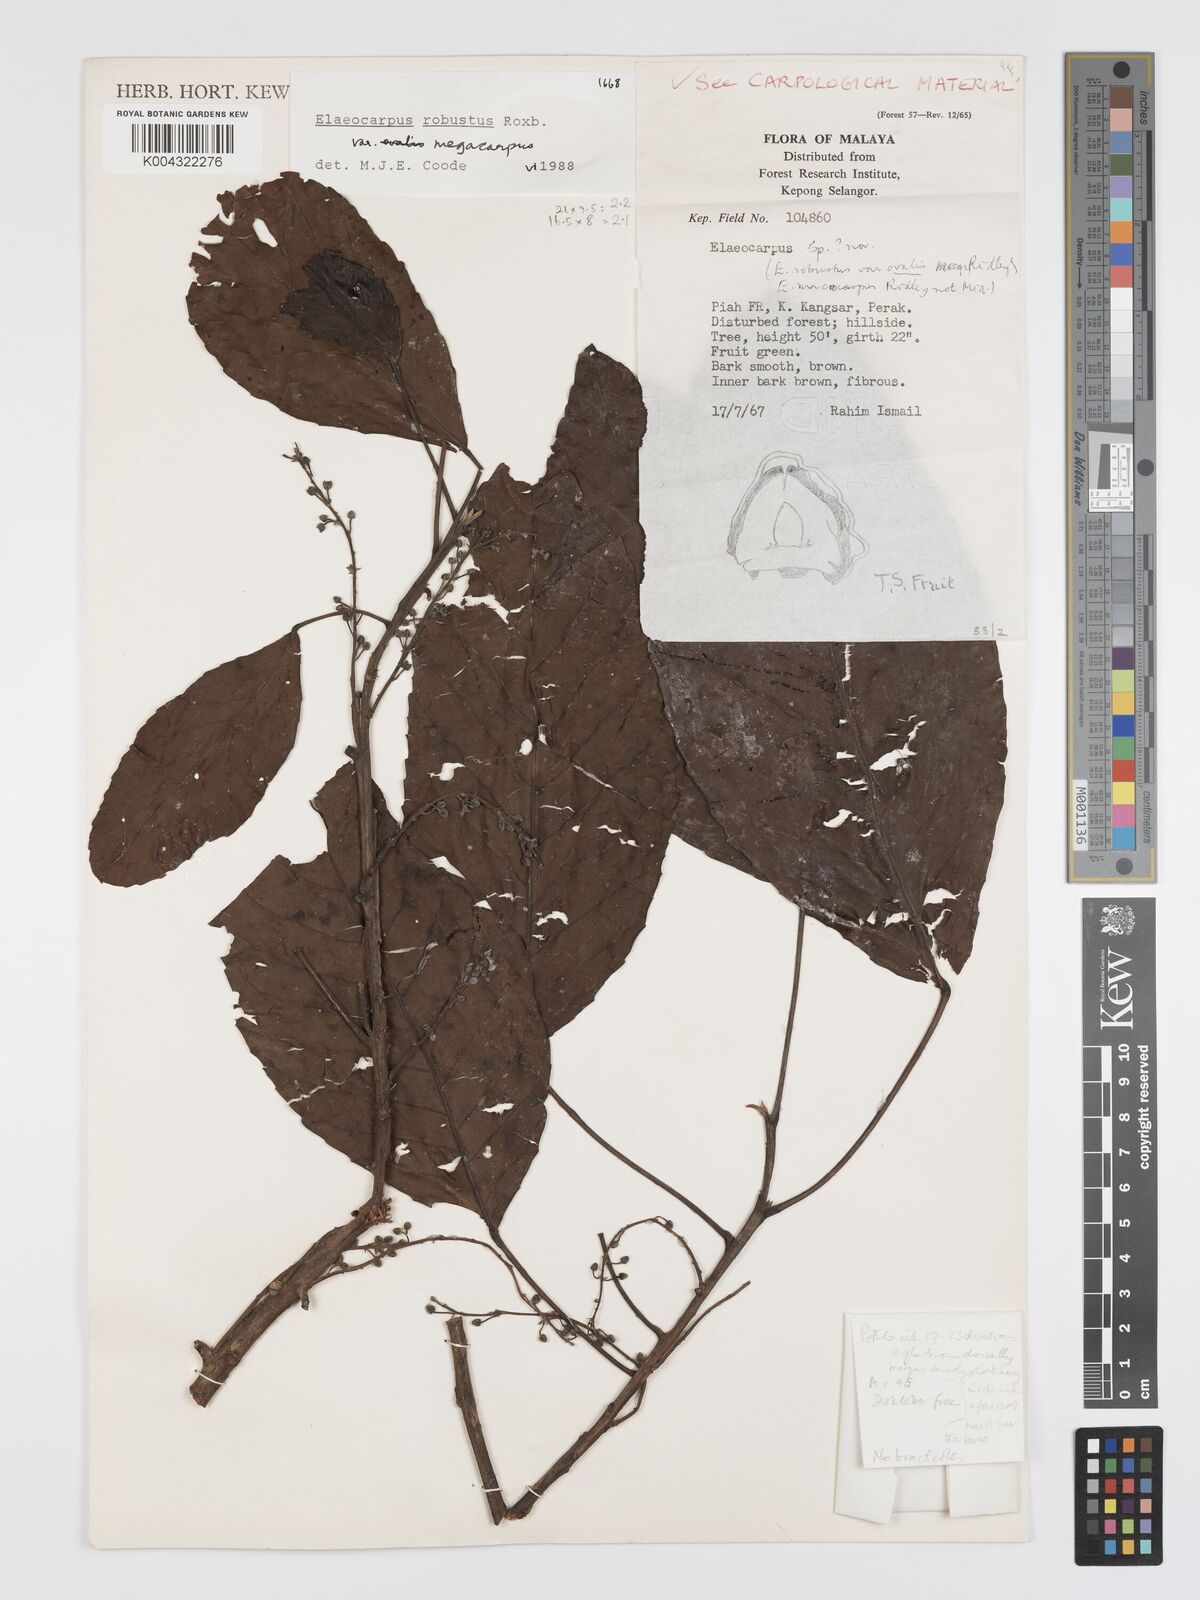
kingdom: Plantae
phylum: Tracheophyta
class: Magnoliopsida
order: Oxalidales
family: Elaeocarpaceae
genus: Elaeocarpus
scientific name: Elaeocarpus robustus
